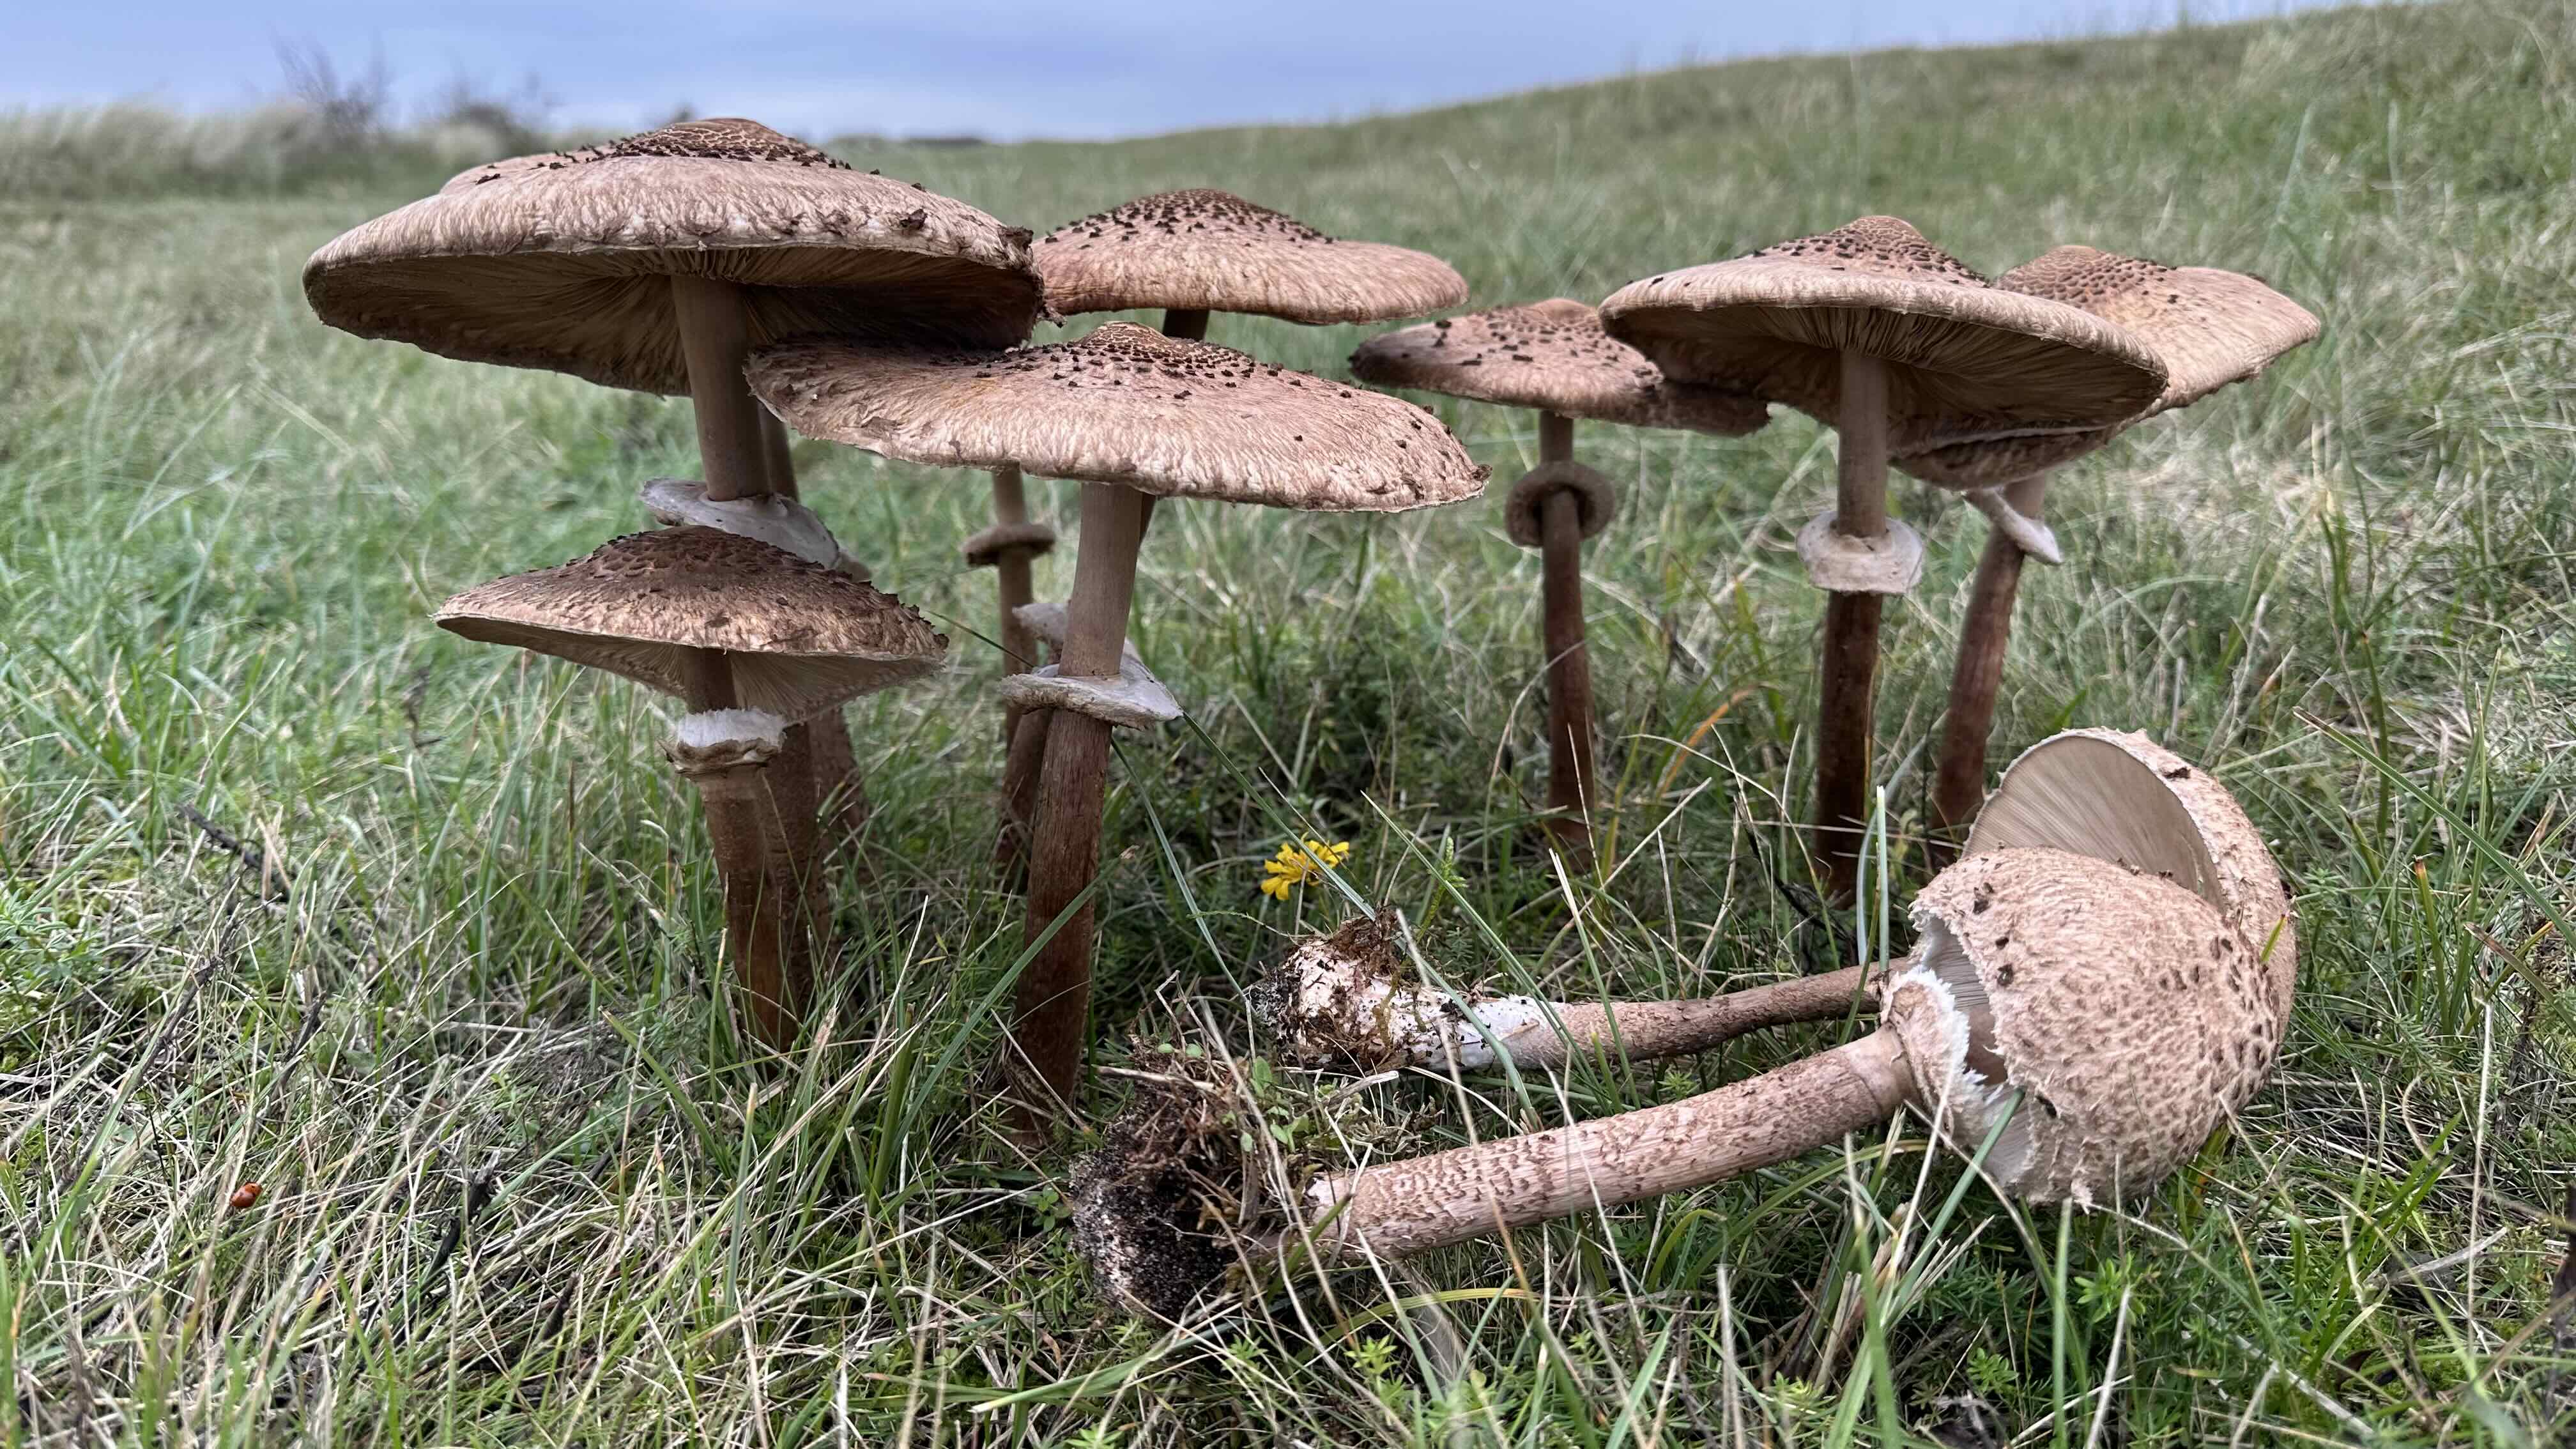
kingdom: Fungi
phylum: Basidiomycota
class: Agaricomycetes
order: Agaricales
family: Agaricaceae
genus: Macrolepiota
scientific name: Macrolepiota procera
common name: stor kæmpeparasolhat
